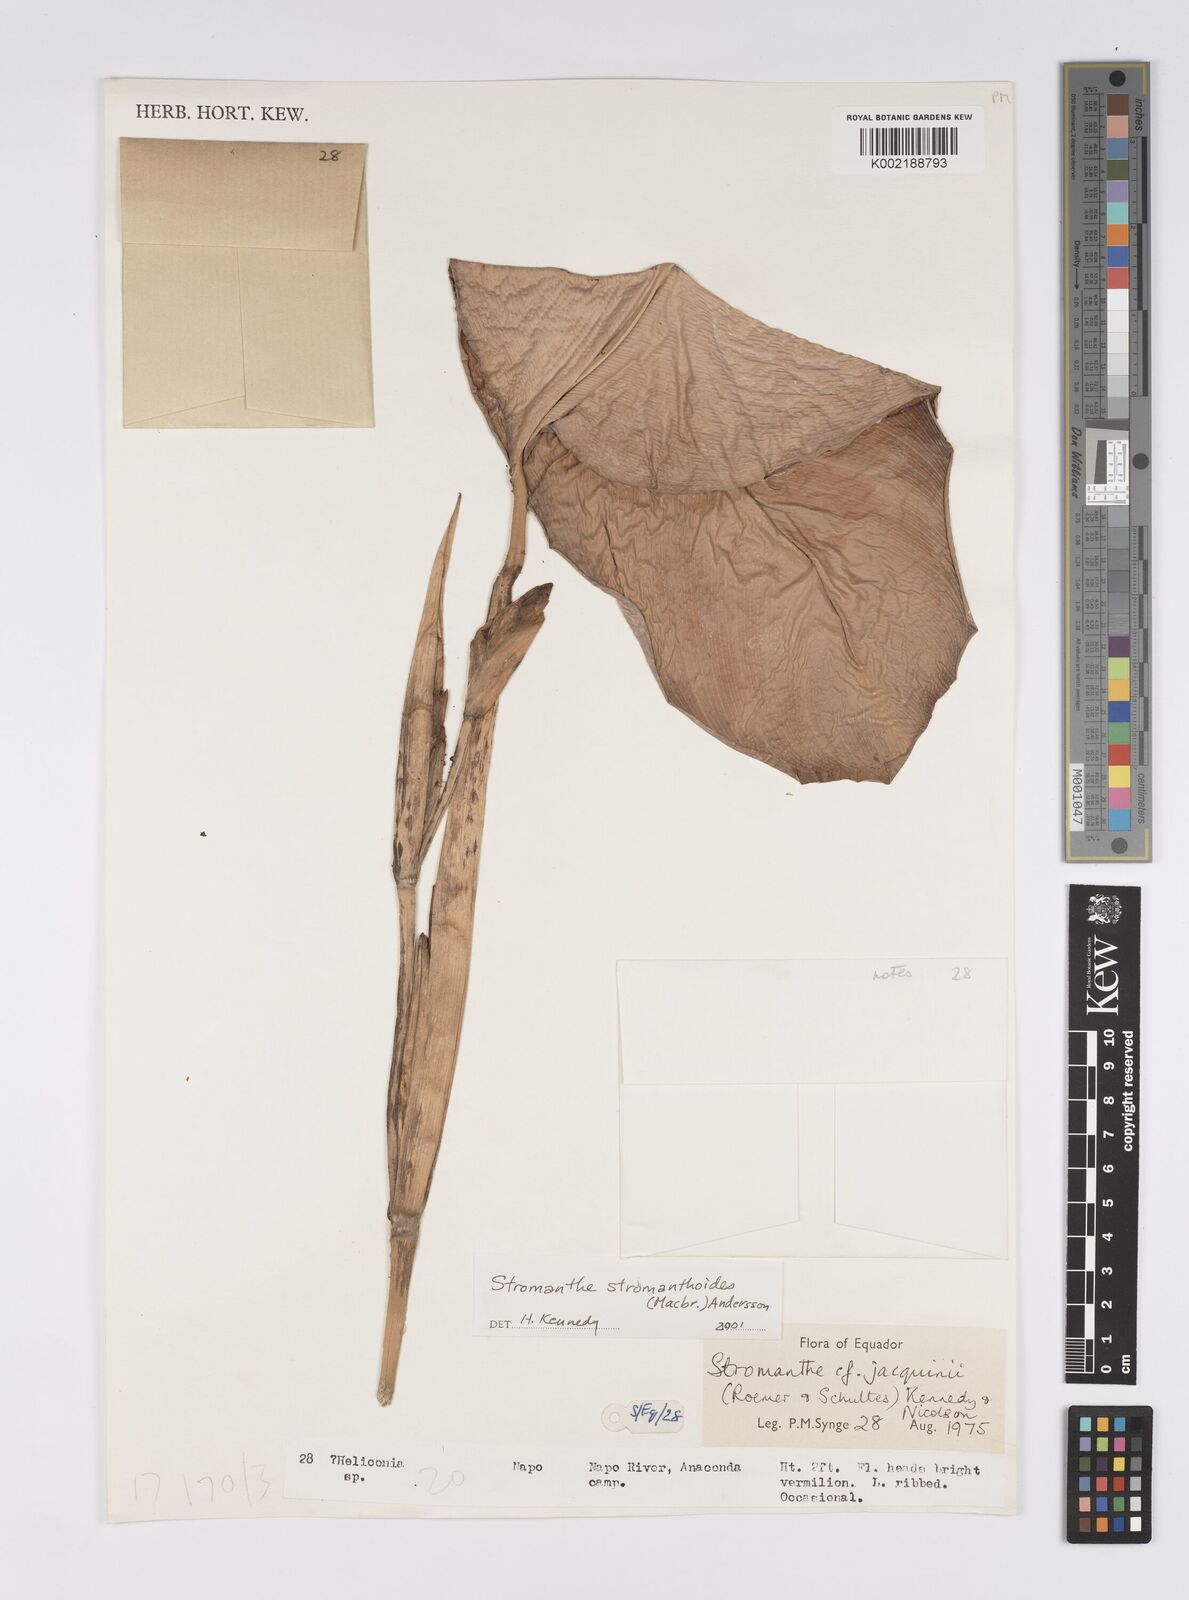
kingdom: Plantae
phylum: Tracheophyta
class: Liliopsida
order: Zingiberales
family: Marantaceae
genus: Stromanthe
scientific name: Stromanthe stromanthoides
